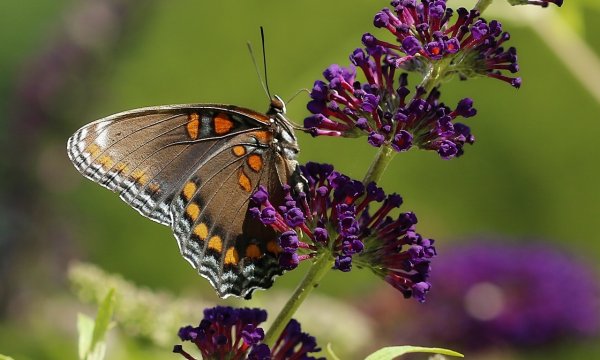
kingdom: Animalia
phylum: Arthropoda
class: Insecta
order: Lepidoptera
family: Nymphalidae
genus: Limenitis
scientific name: Limenitis arthemis
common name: Red-spotted Admiral
